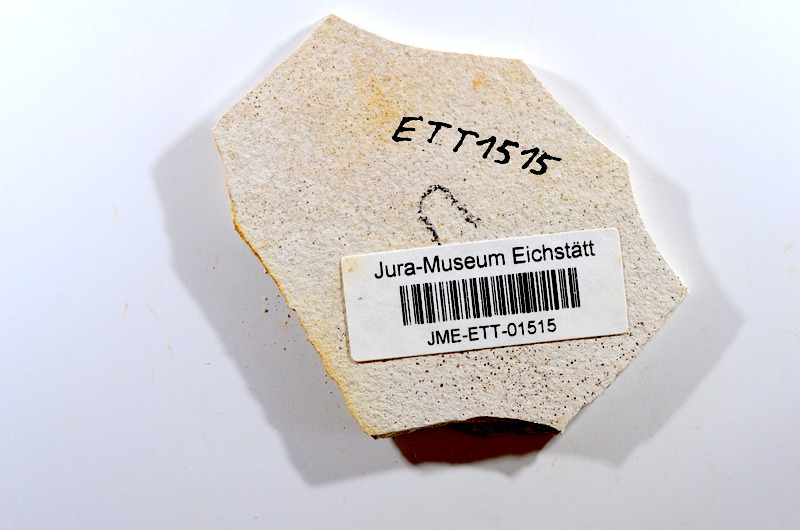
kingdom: Animalia
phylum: Chordata
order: Salmoniformes
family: Orthogonikleithridae
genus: Orthogonikleithrus
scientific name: Orthogonikleithrus hoelli
